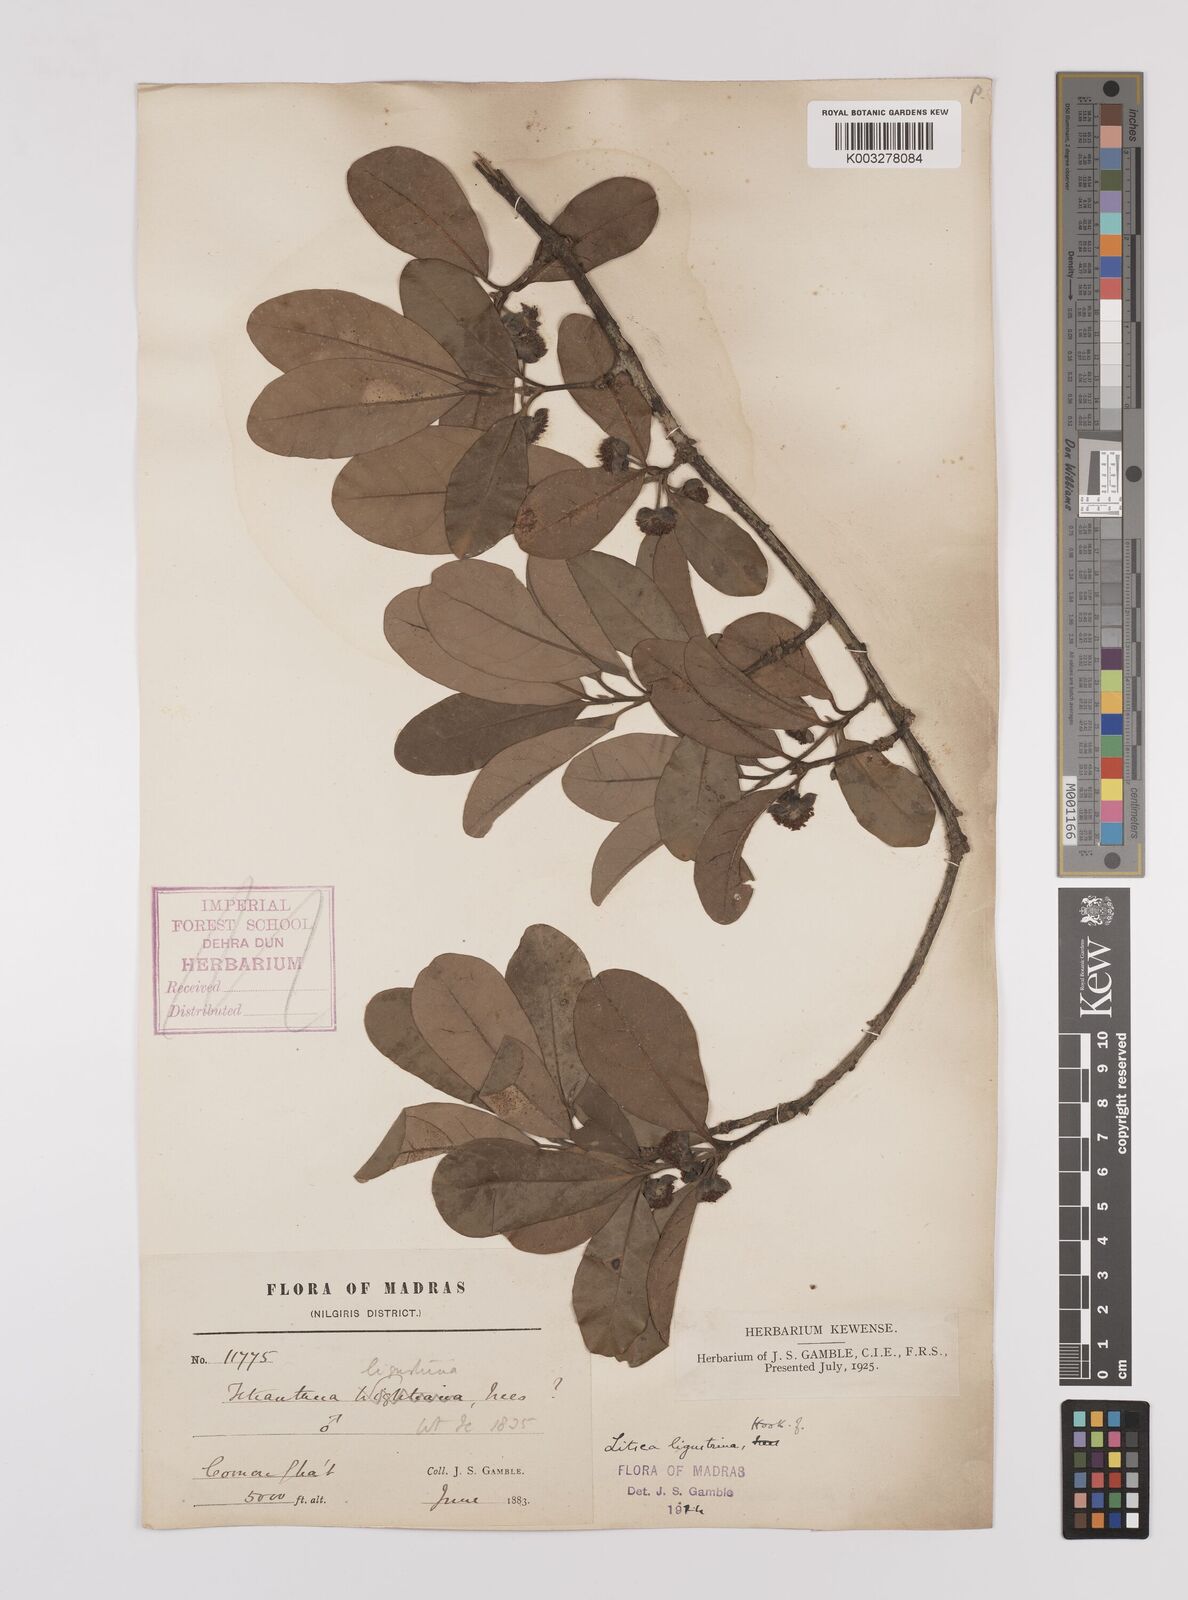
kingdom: Plantae
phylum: Tracheophyta
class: Magnoliopsida
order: Laurales
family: Lauraceae
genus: Litsea
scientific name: Litsea ligustrina
